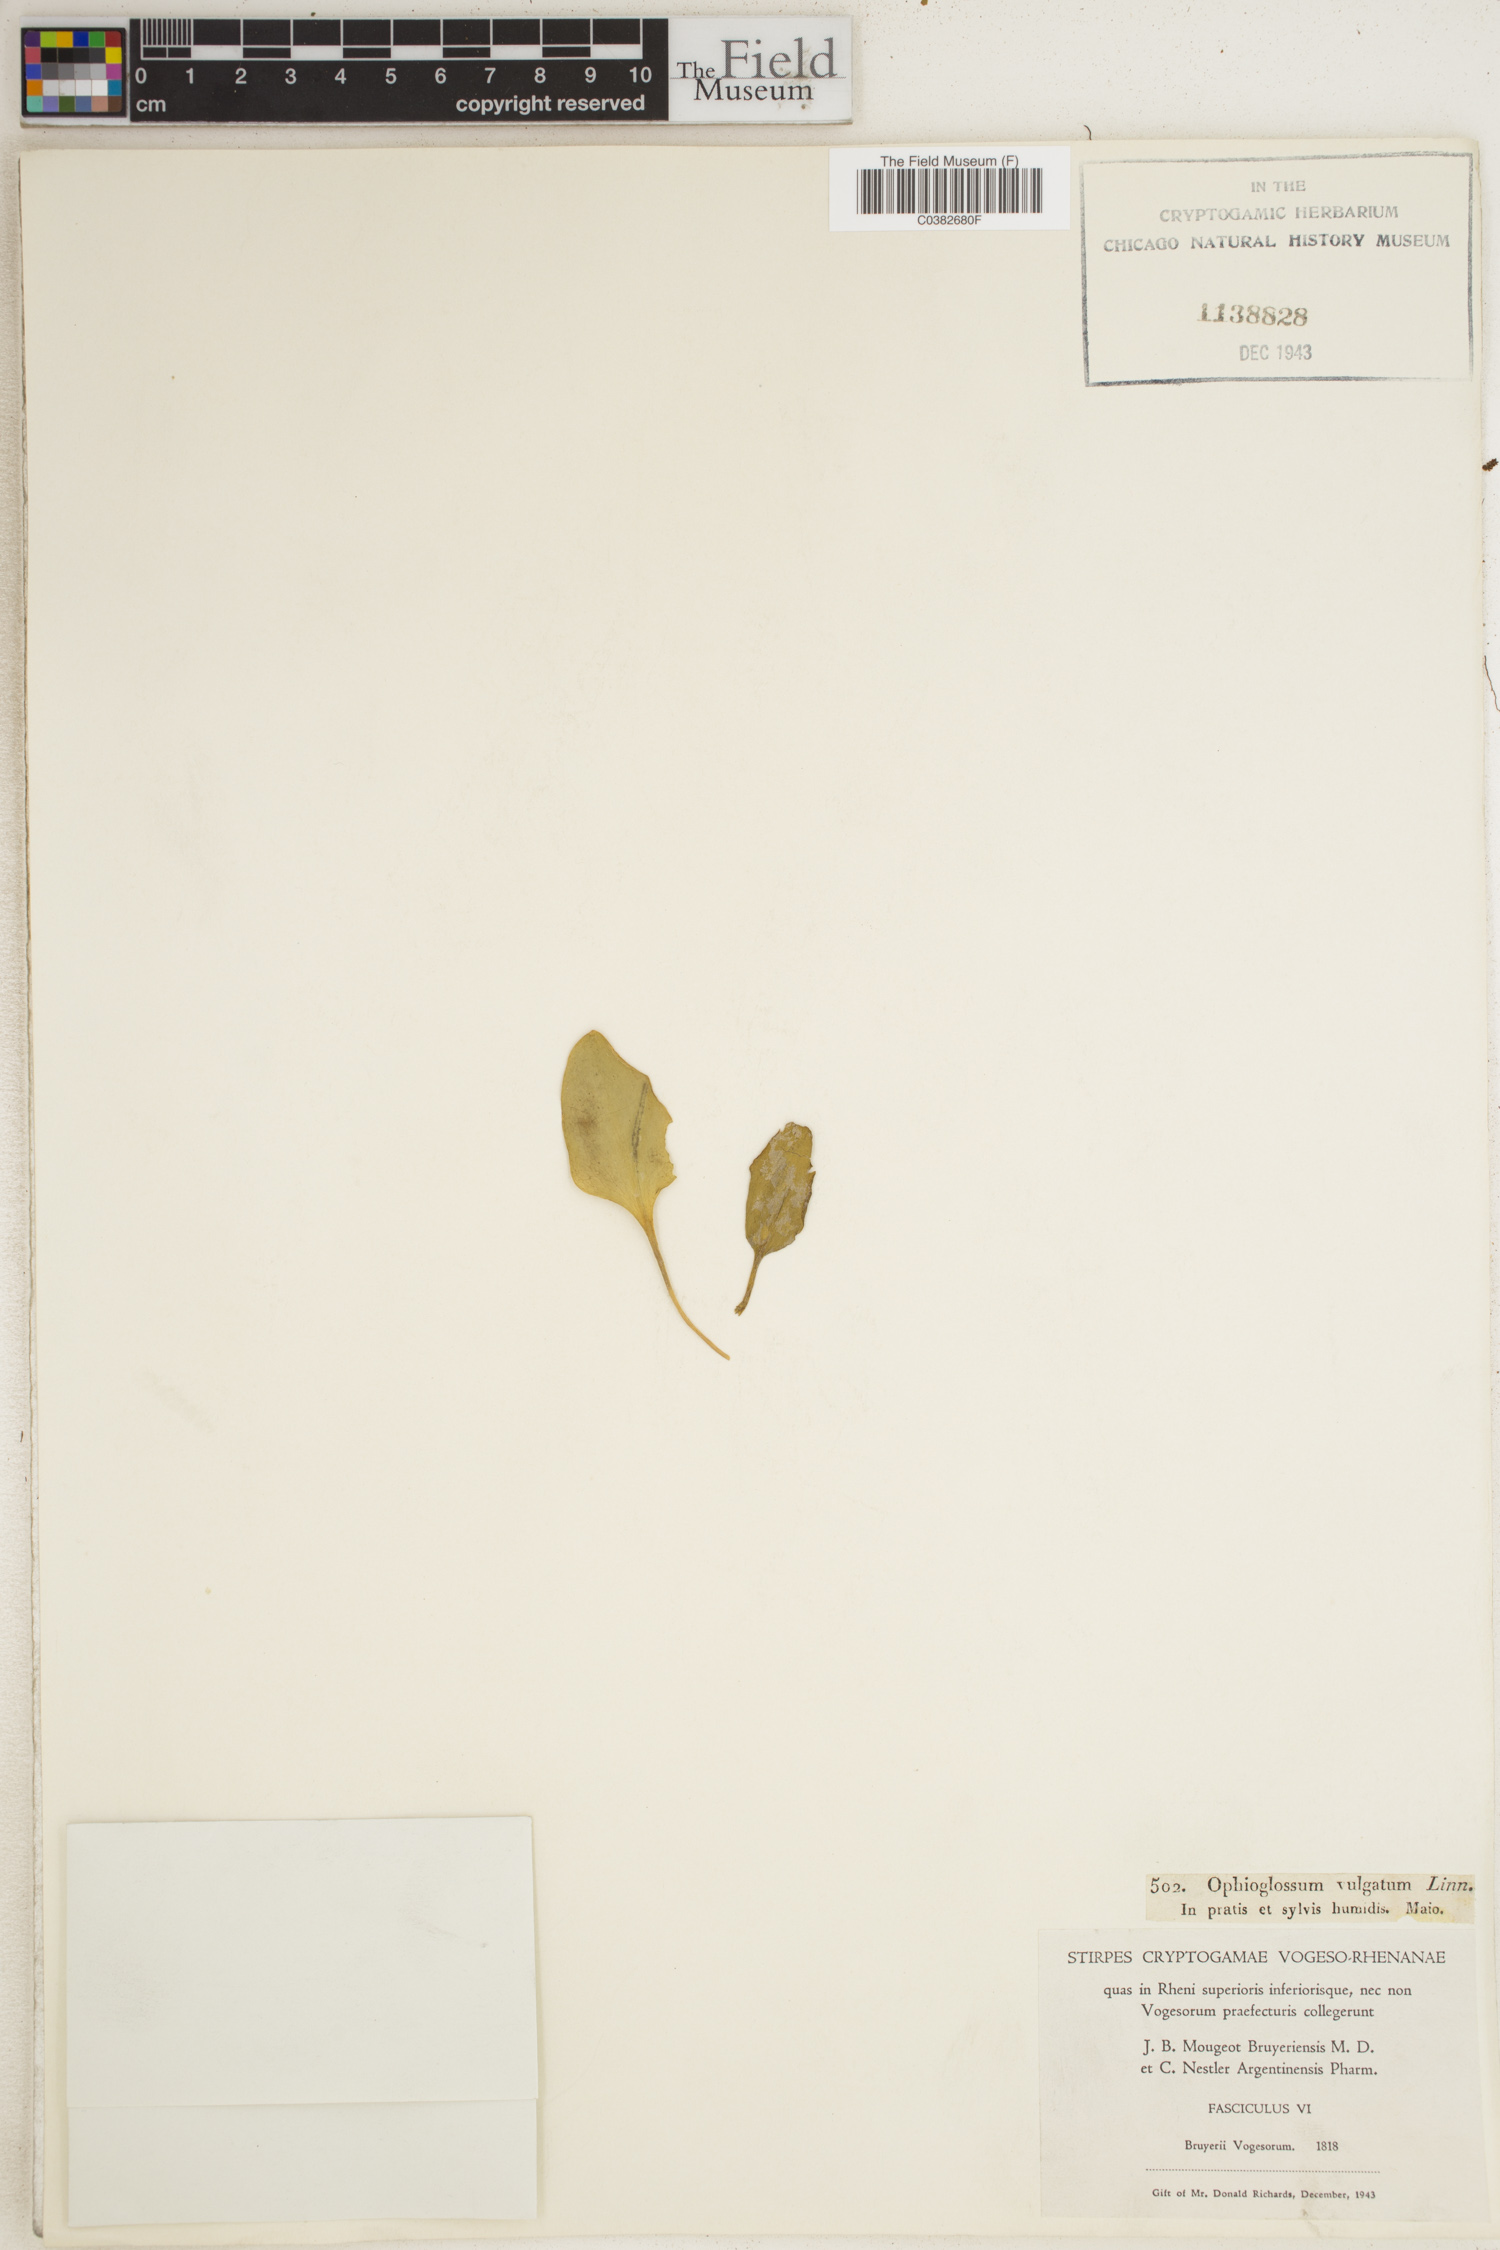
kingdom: Plantae
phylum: Tracheophyta
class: Polypodiopsida
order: Ophioglossales
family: Ophioglossaceae
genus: Ophioglossum
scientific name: Ophioglossum vulgatum
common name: Adder's-tongue
